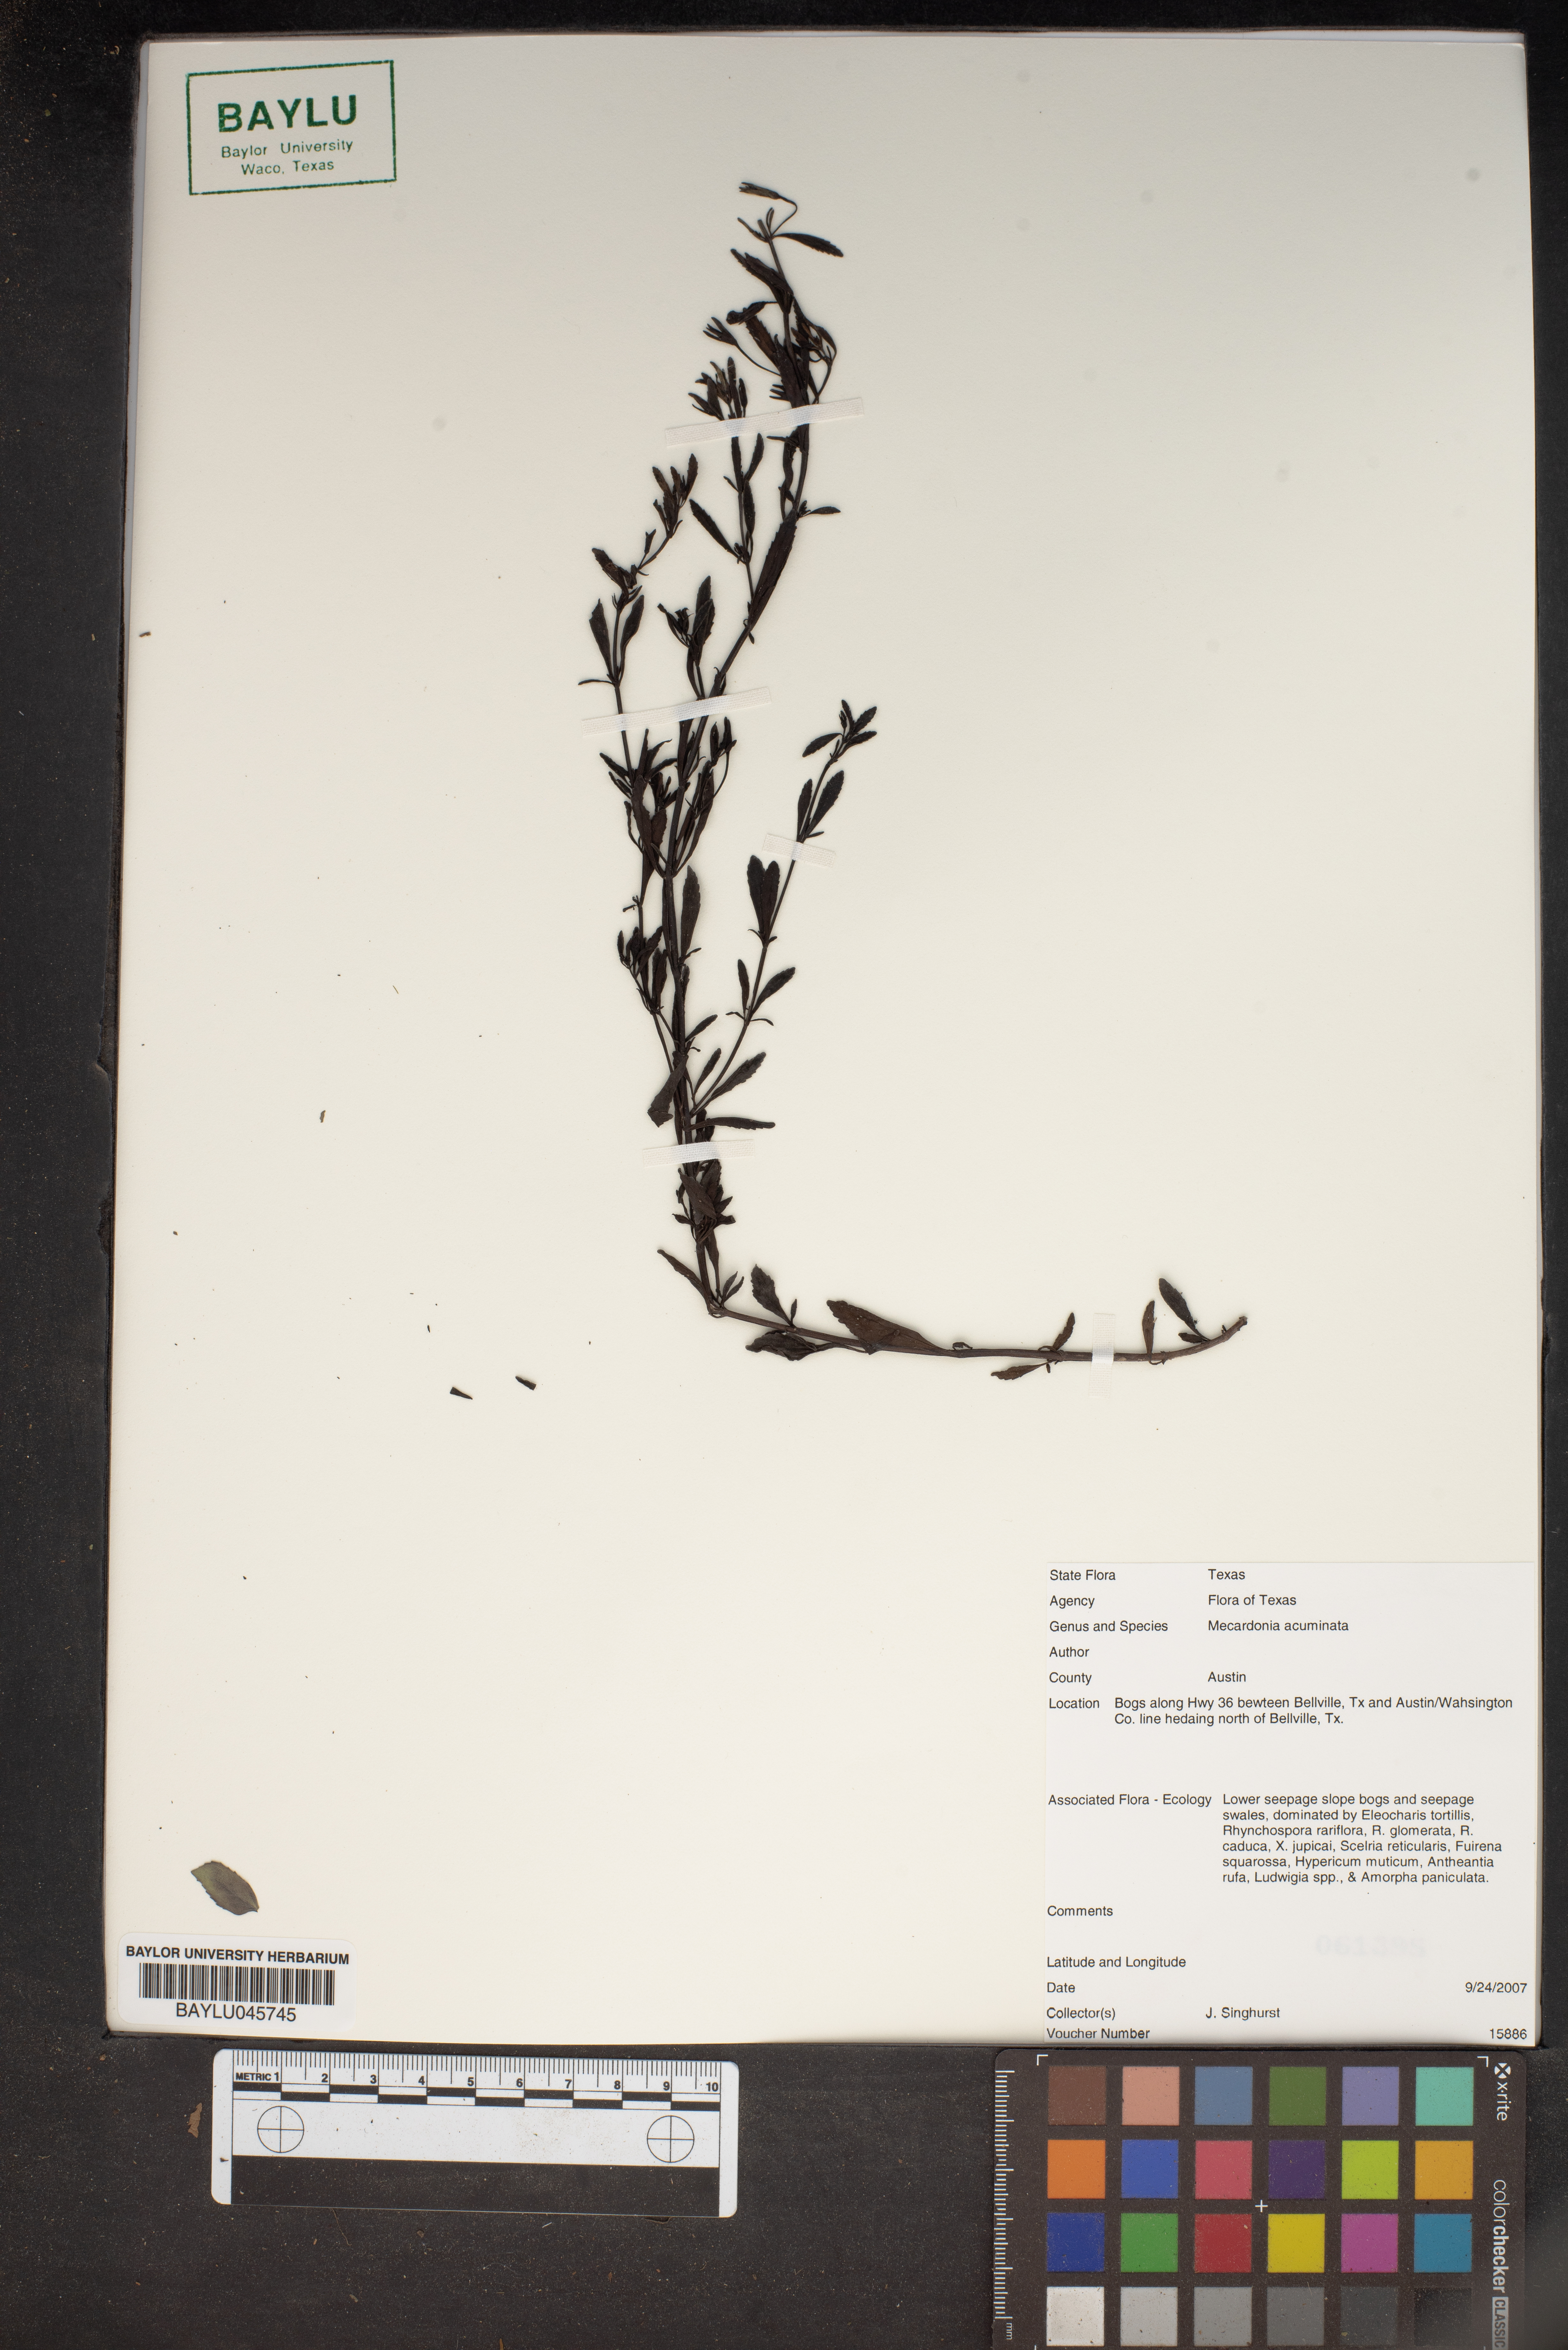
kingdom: Plantae
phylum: Tracheophyta
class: Magnoliopsida
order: Lamiales
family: Plantaginaceae
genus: Mecardonia
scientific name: Mecardonia acuminata
